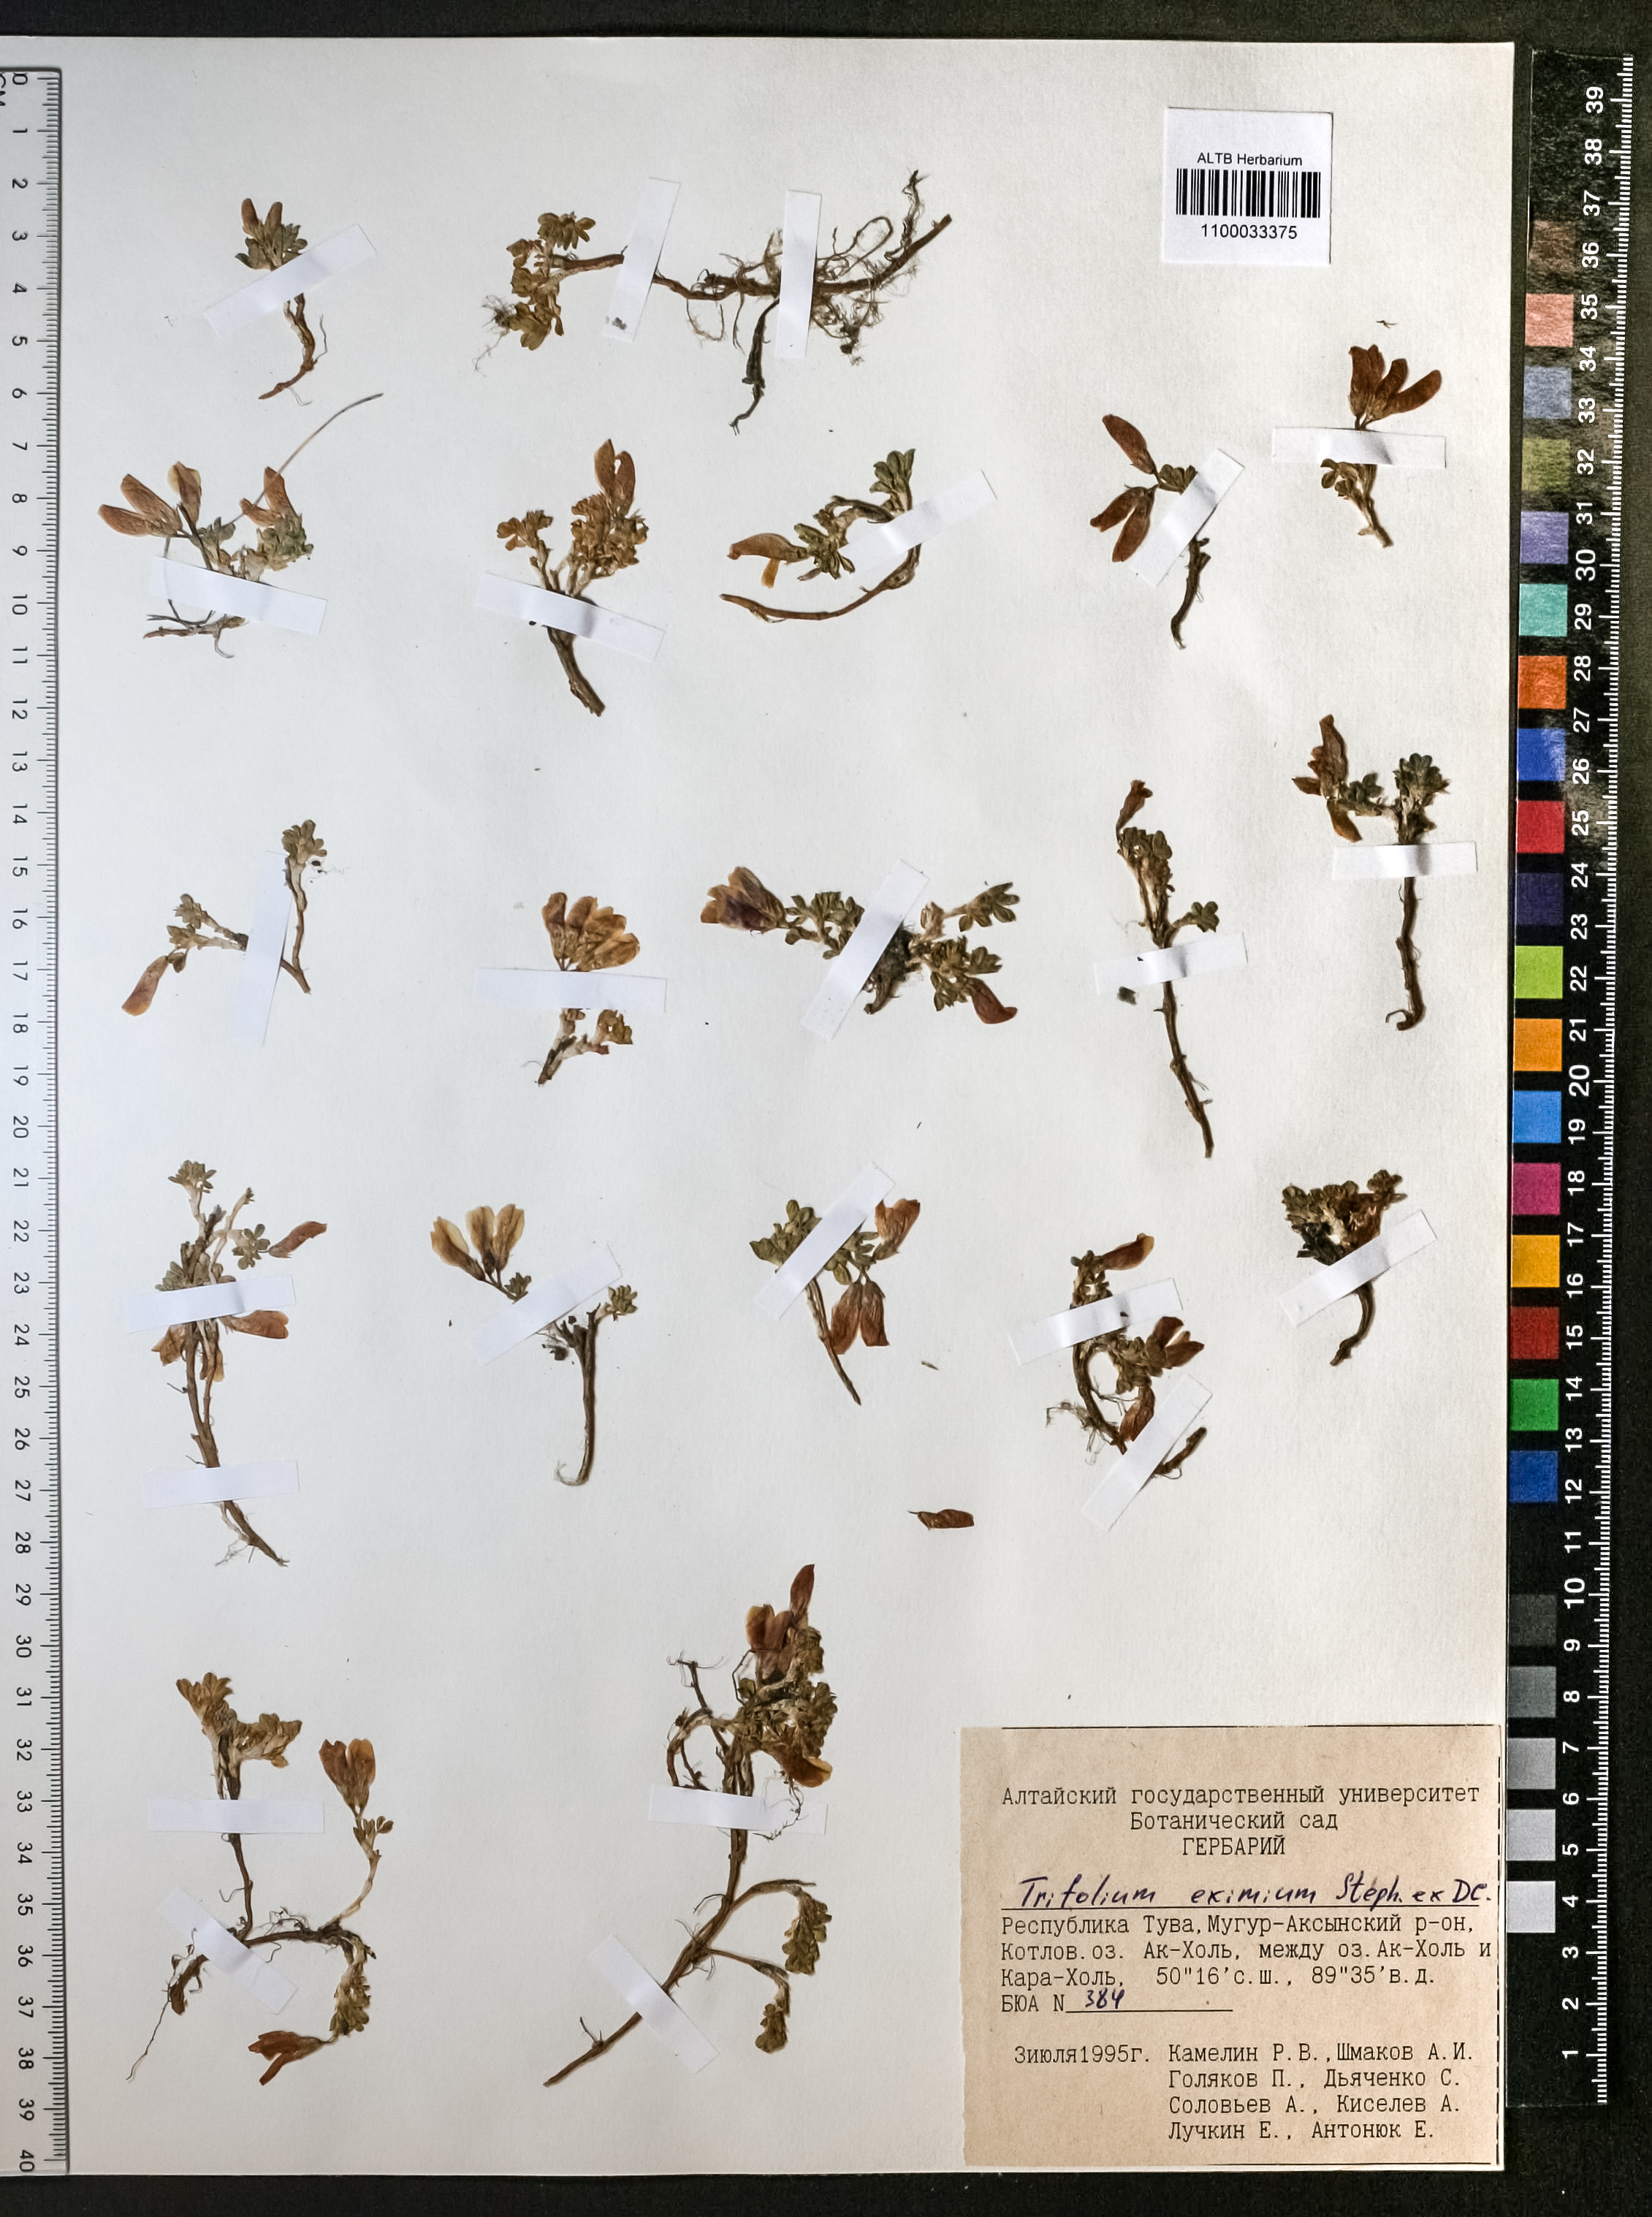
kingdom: Plantae
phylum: Tracheophyta
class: Magnoliopsida
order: Fabales
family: Fabaceae
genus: Trifolium
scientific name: Trifolium eximium
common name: Excellent clover
